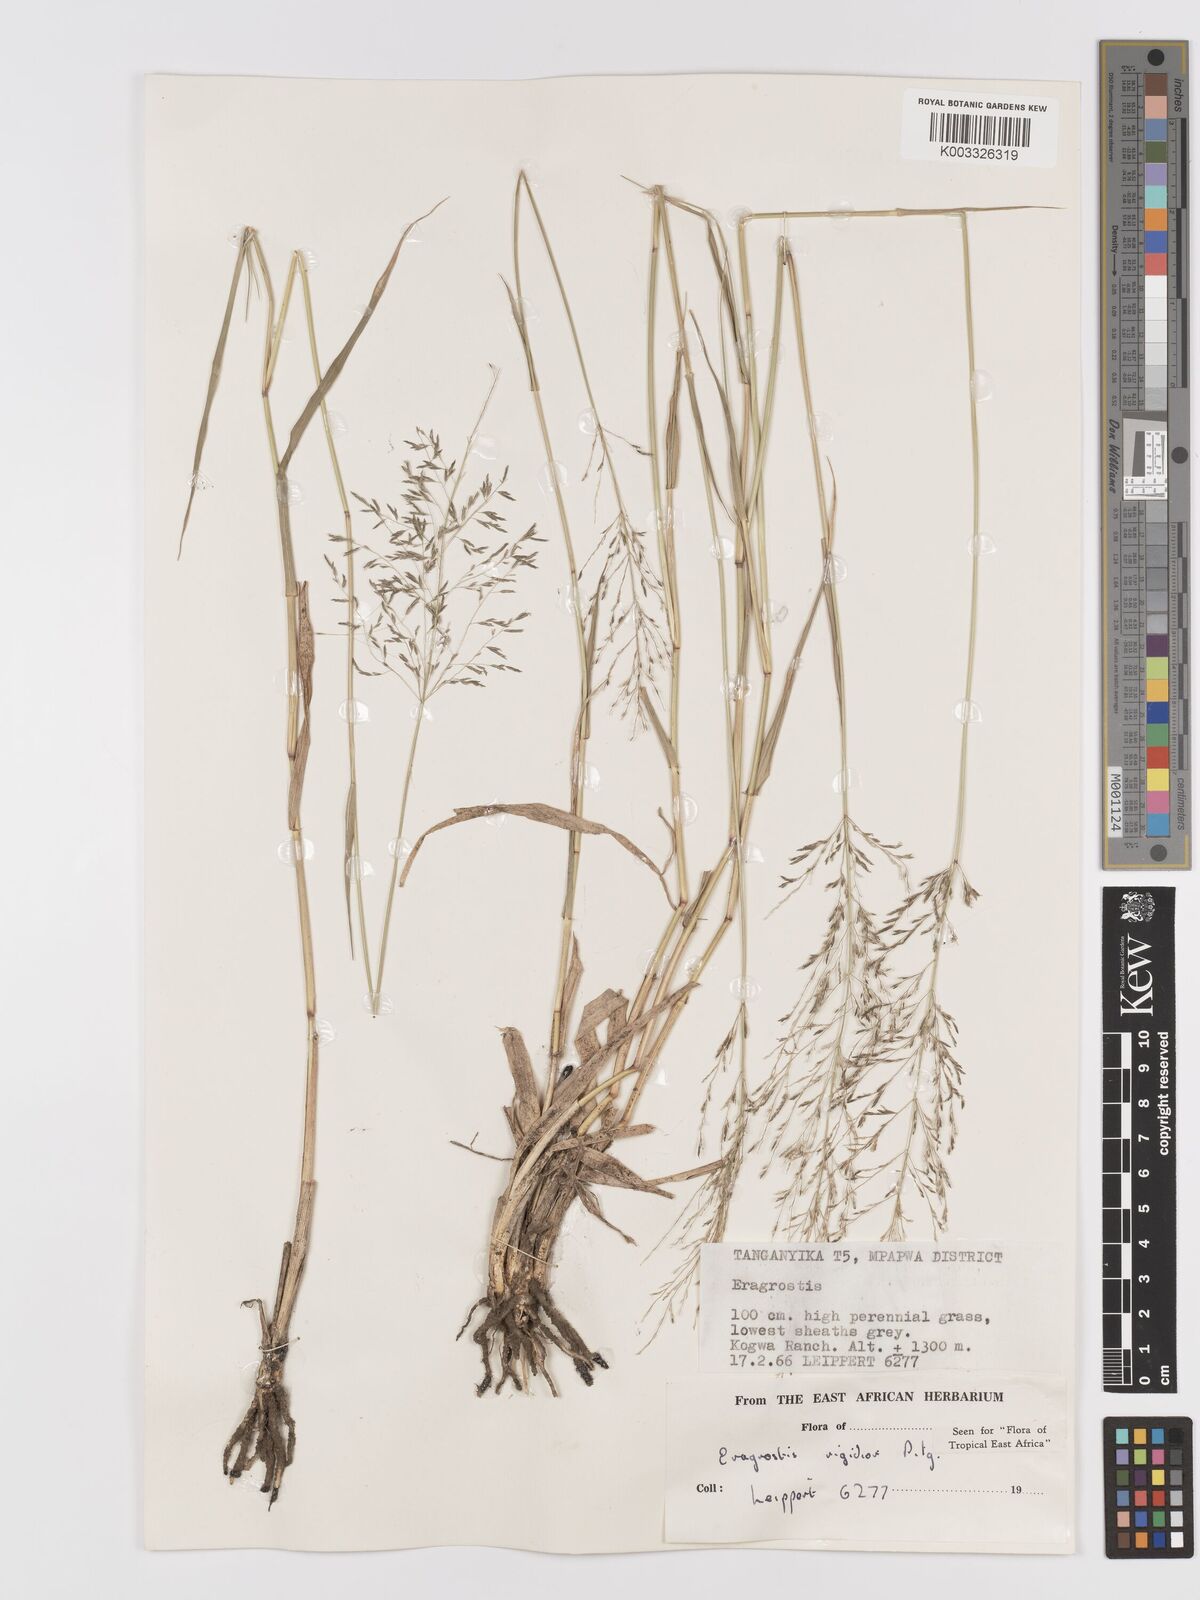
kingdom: Plantae
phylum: Tracheophyta
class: Liliopsida
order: Poales
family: Poaceae
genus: Eragrostis
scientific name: Eragrostis cylindriflora
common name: Cylinderflower lovegrass
